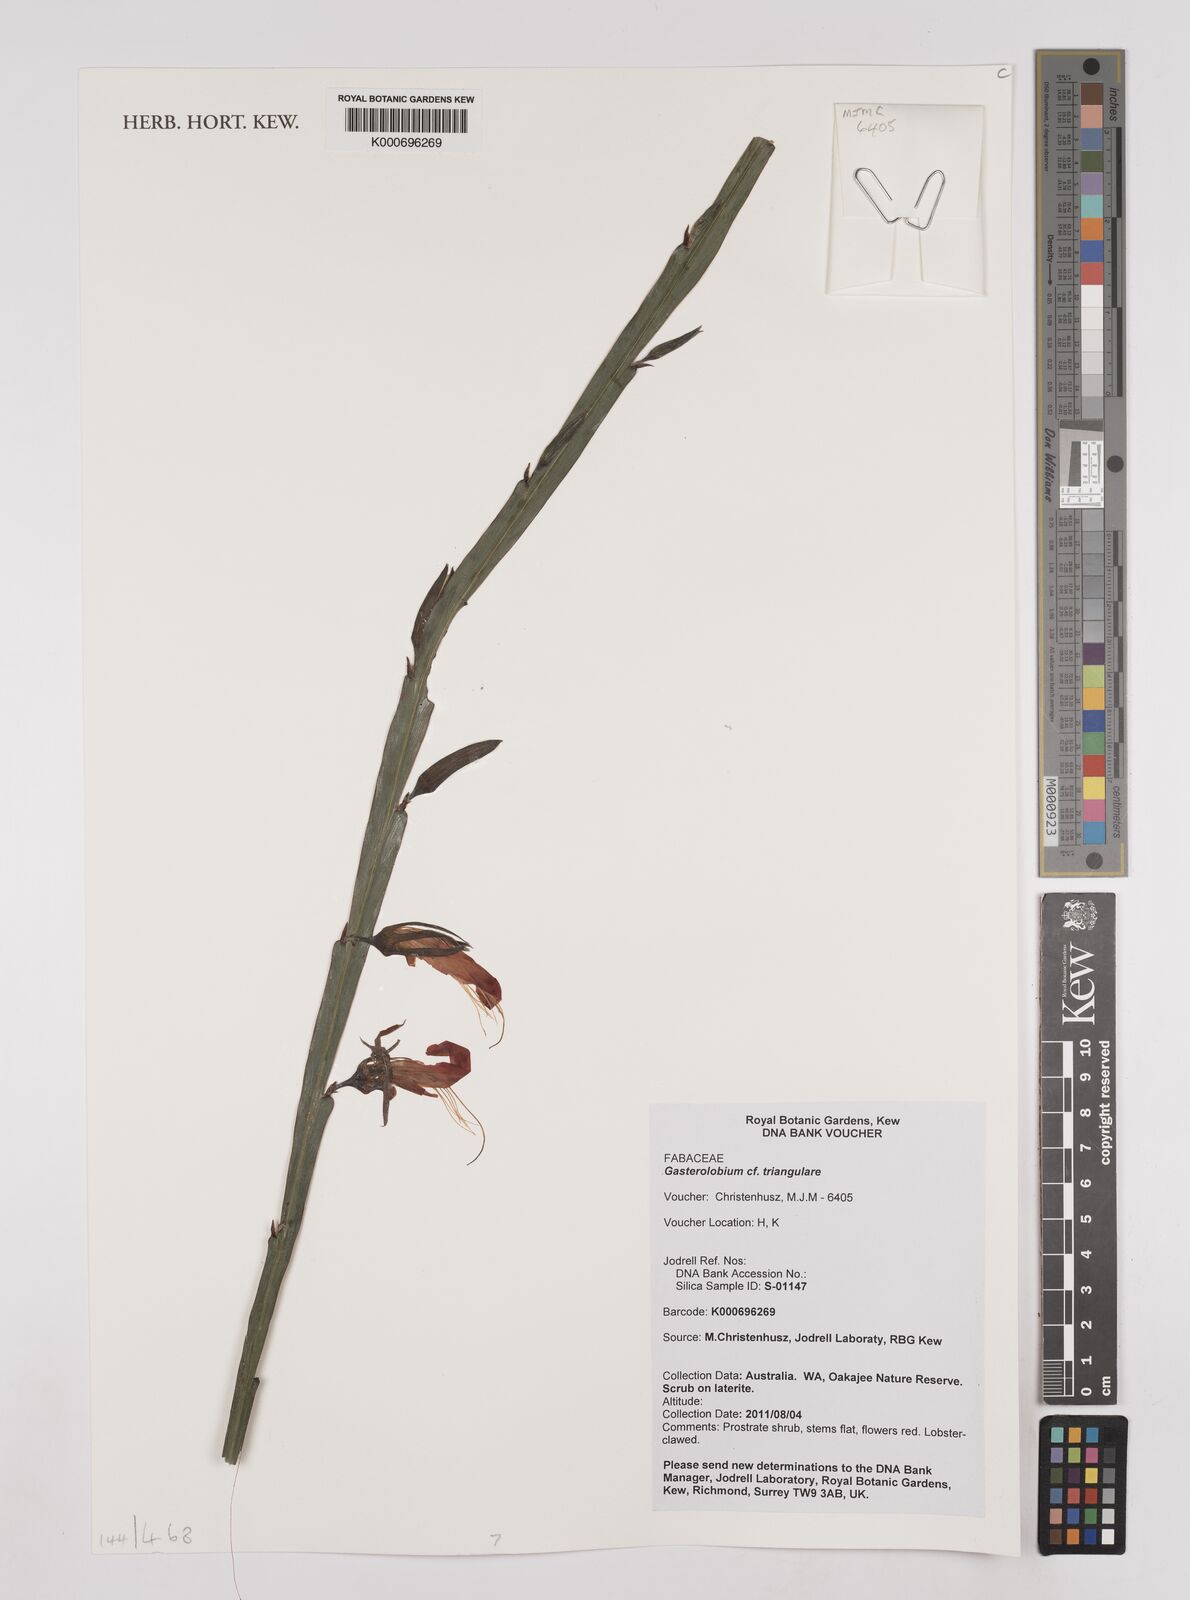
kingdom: Plantae
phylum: Tracheophyta
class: Magnoliopsida
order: Fabales
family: Fabaceae
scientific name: Fabaceae
